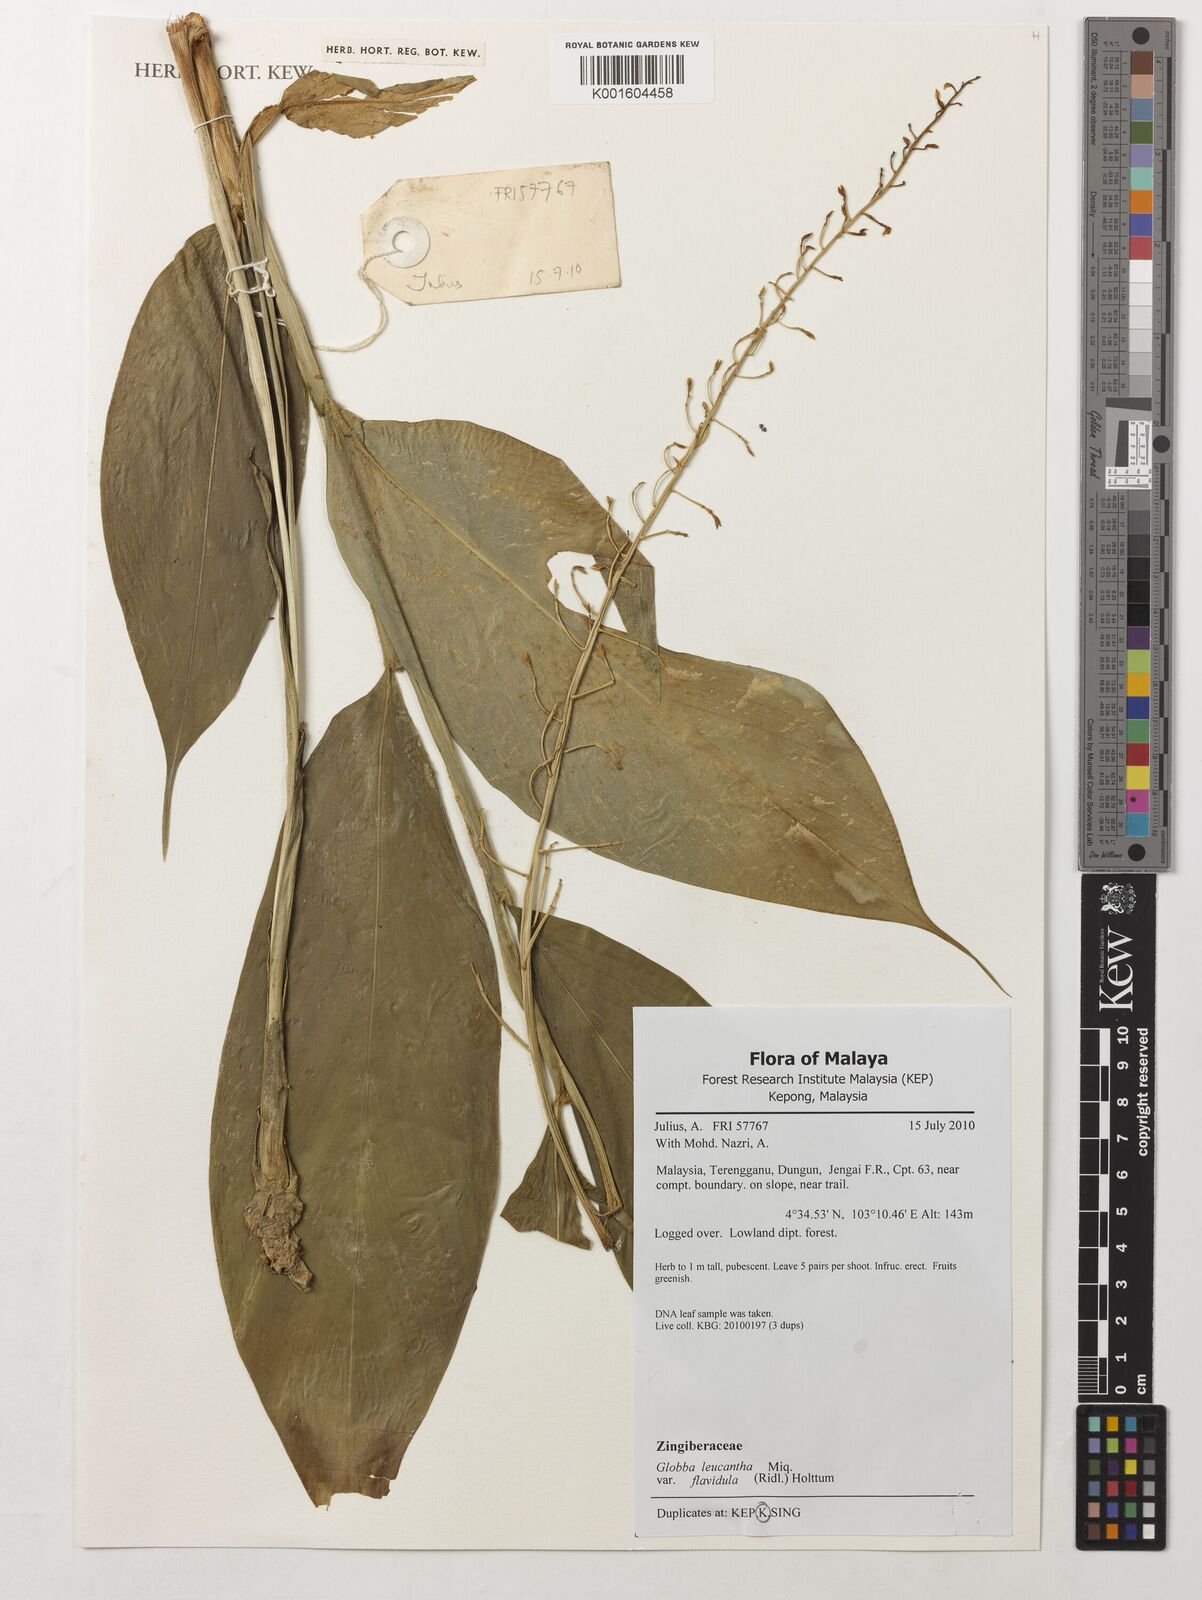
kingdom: Plantae
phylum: Tracheophyta
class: Liliopsida
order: Zingiberales
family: Zingiberaceae
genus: Globba
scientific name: Globba leucantha
